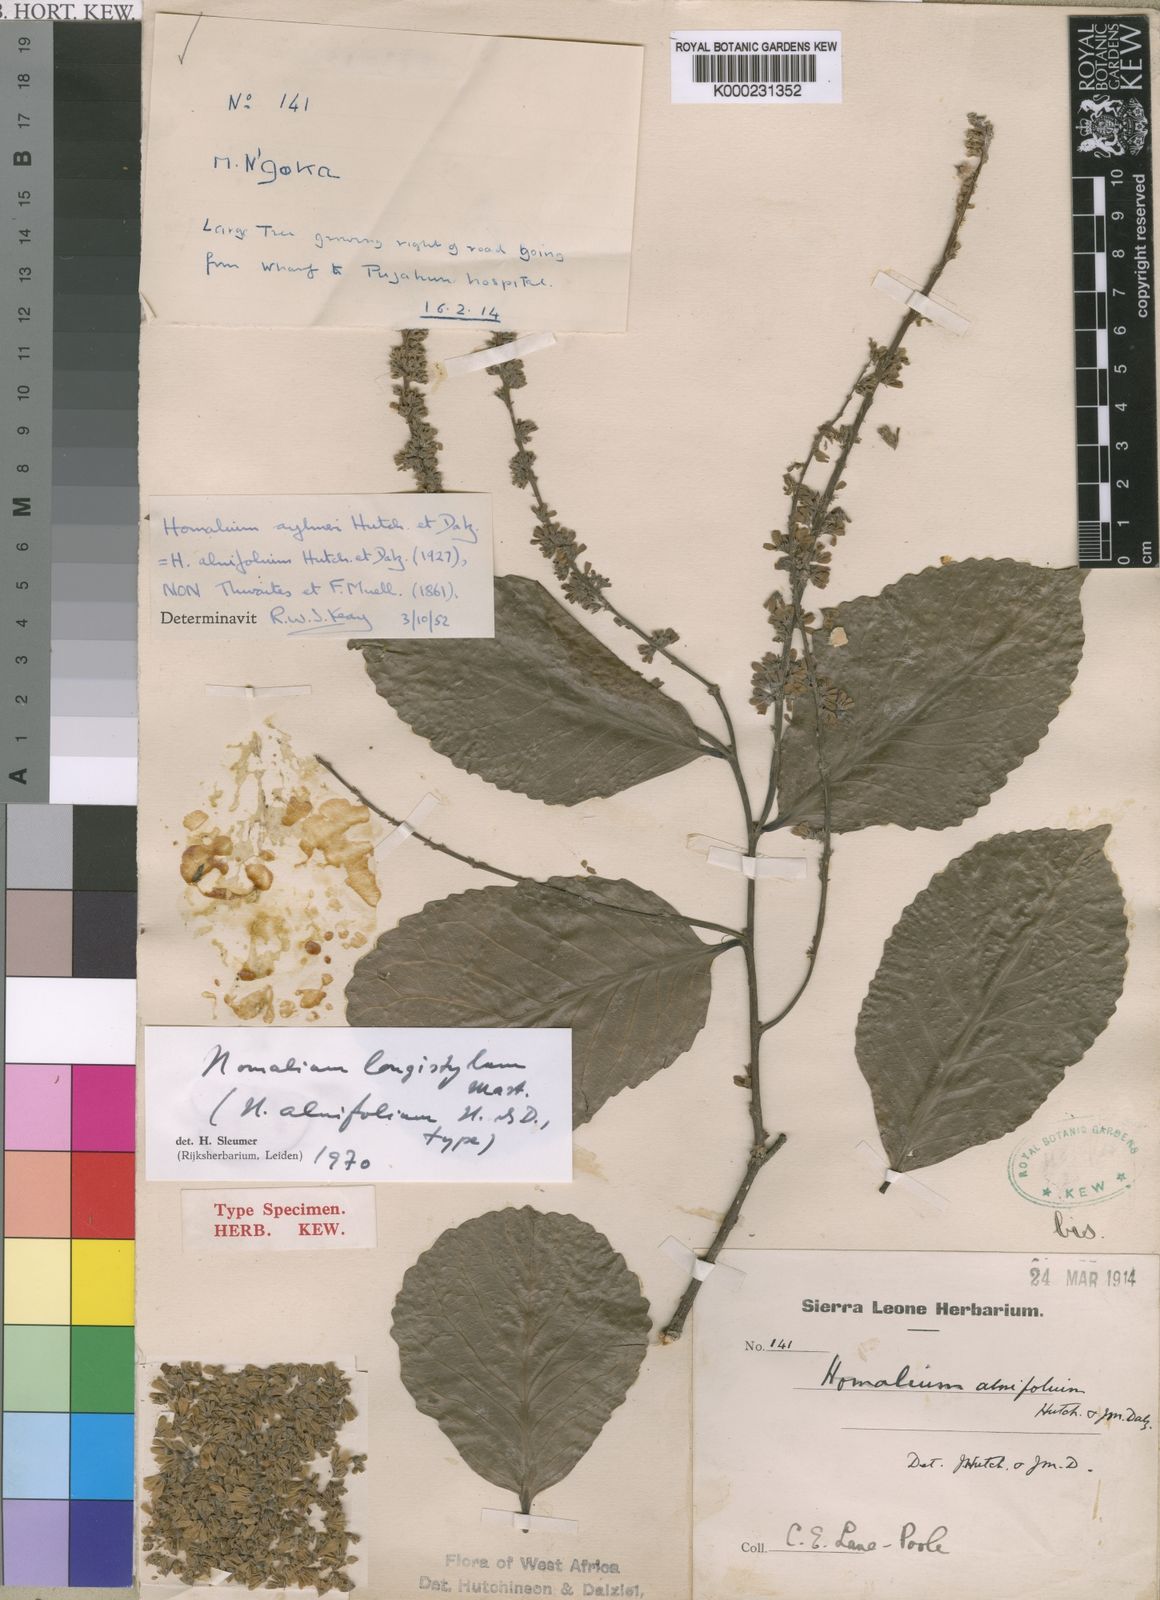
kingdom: Plantae
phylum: Tracheophyta
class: Magnoliopsida
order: Malpighiales
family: Salicaceae
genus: Homalium
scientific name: Homalium longistylum
